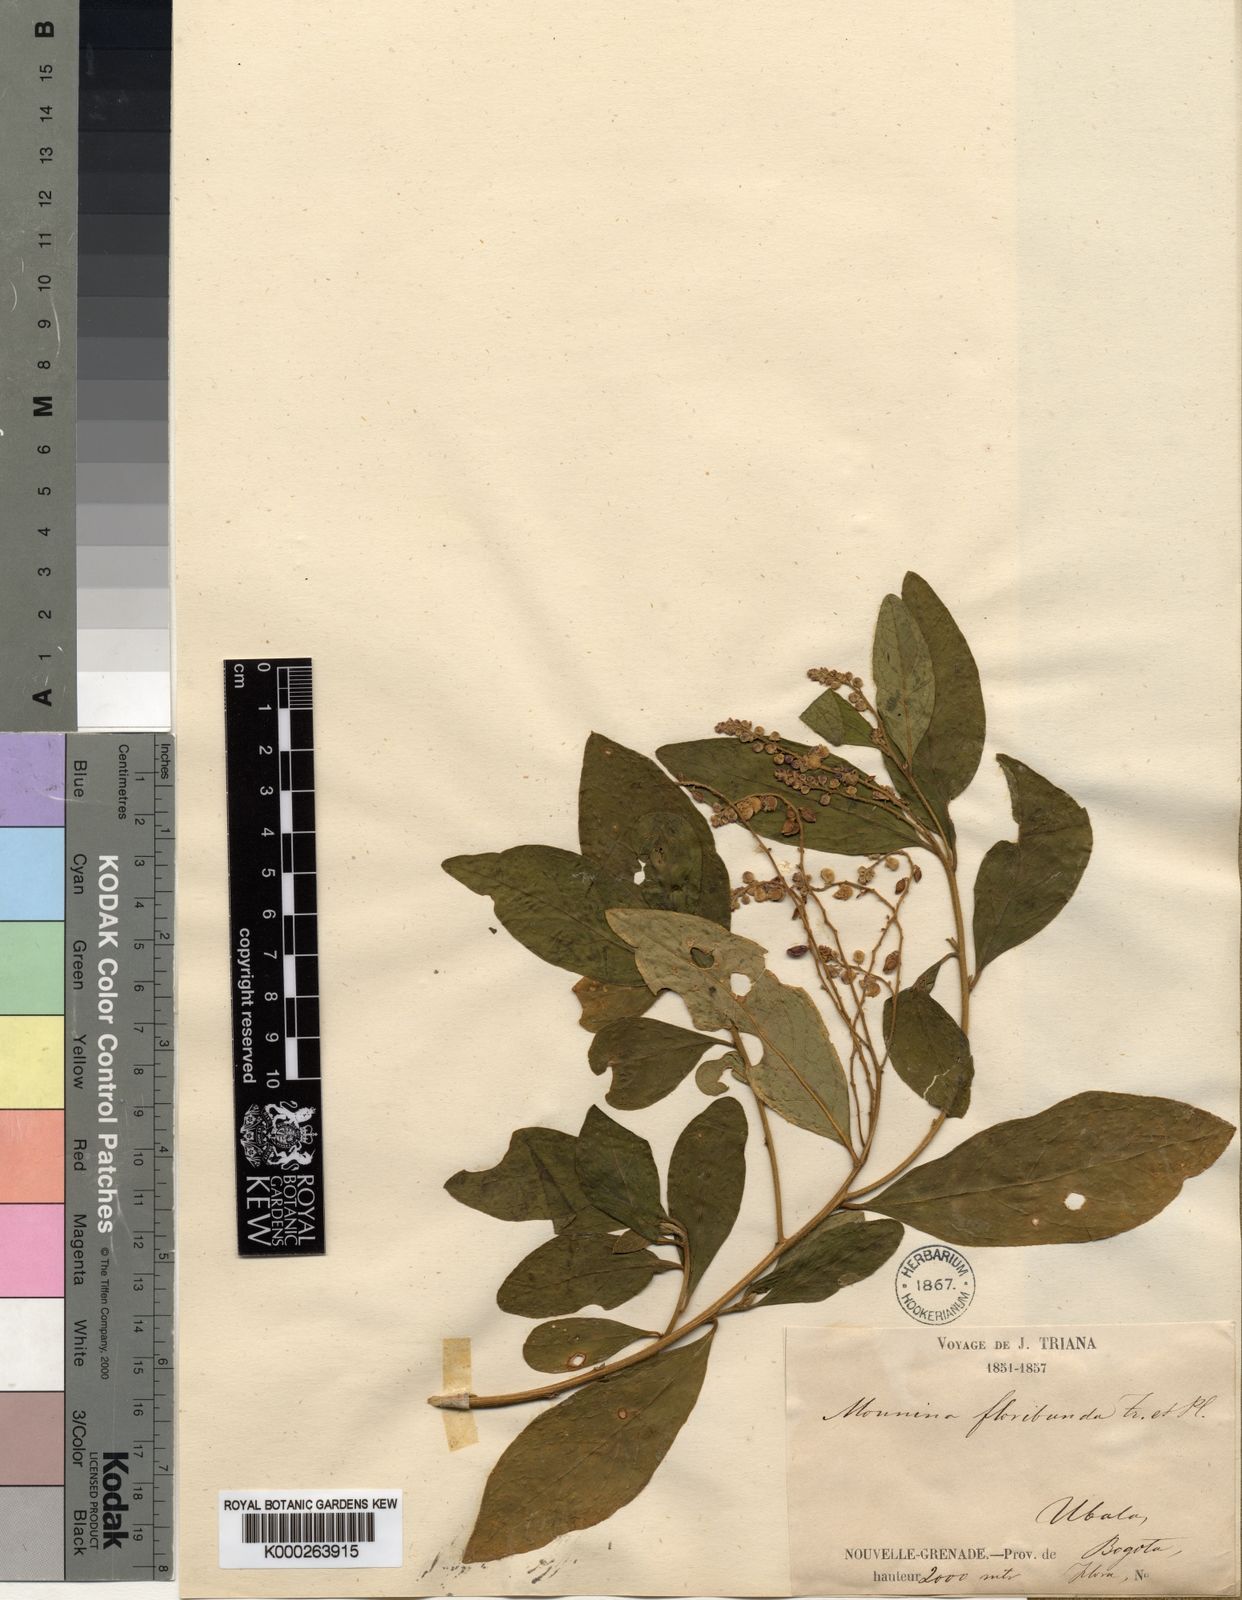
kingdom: Plantae
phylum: Tracheophyta
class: Magnoliopsida
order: Fabales
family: Polygalaceae
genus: Monnina
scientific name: Monnina padifolia
